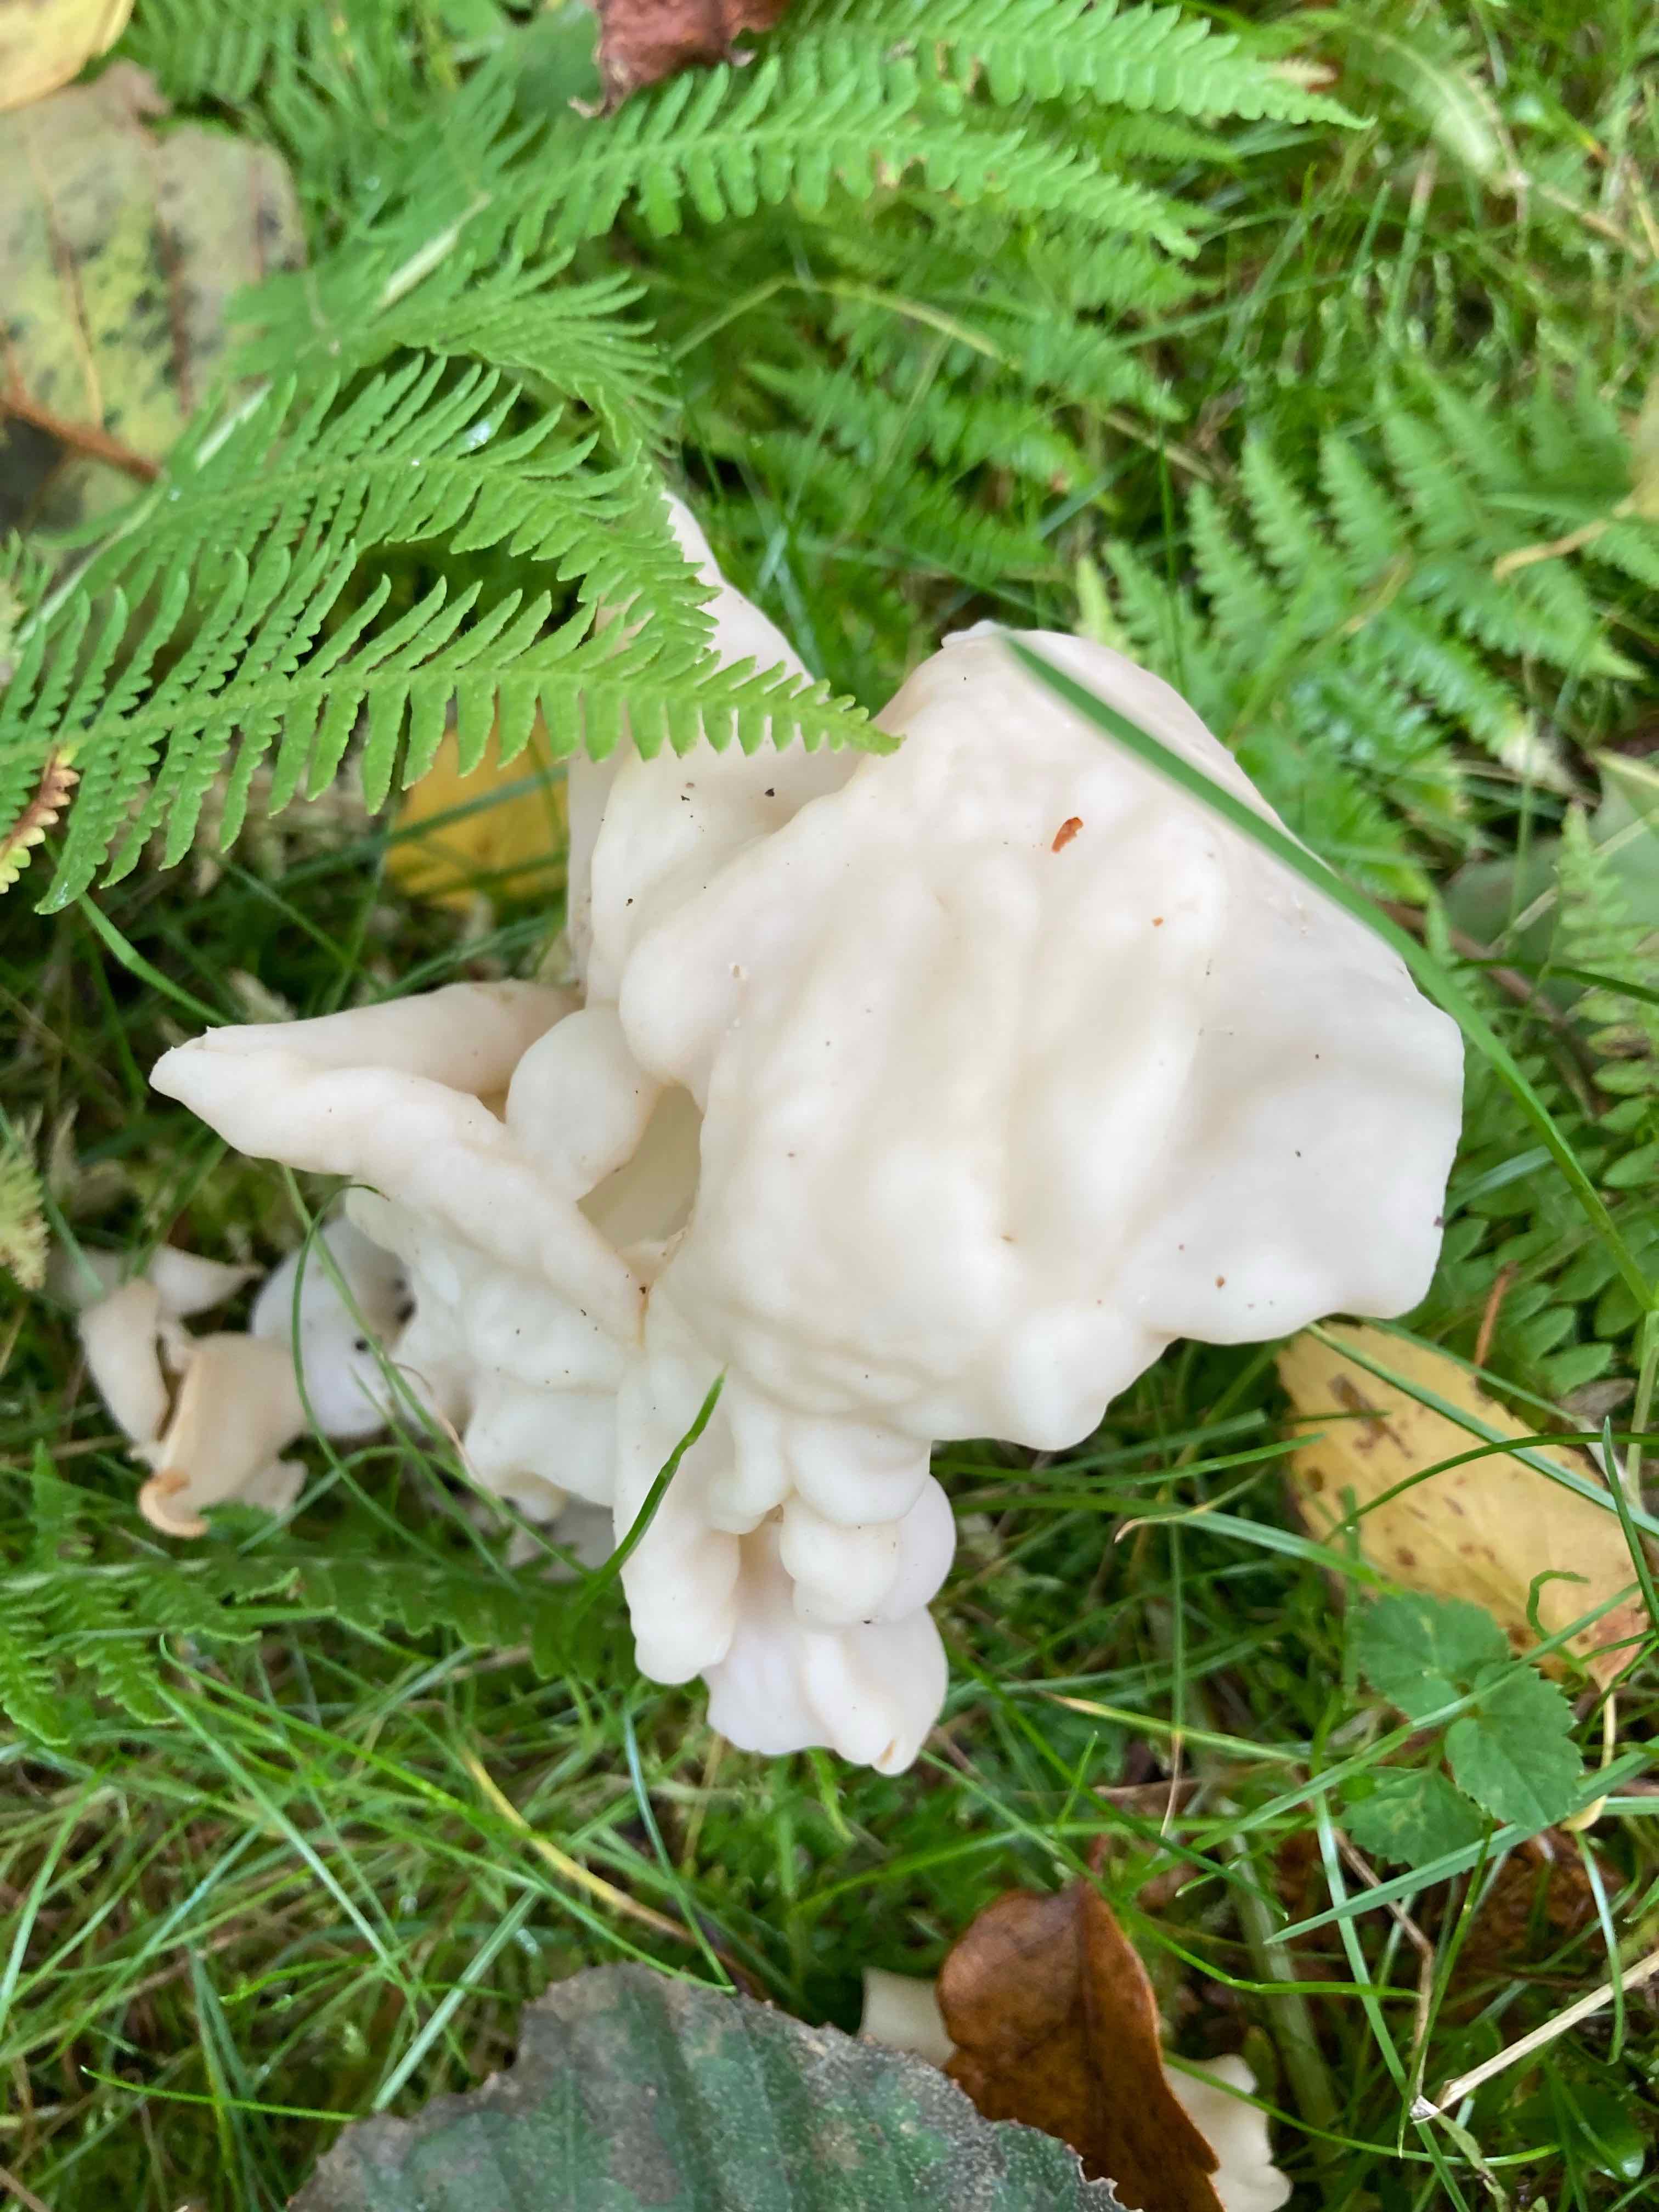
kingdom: Fungi
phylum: Ascomycota
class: Pezizomycetes
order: Pezizales
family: Helvellaceae
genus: Helvella
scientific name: Helvella crispa
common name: kruset foldhat
